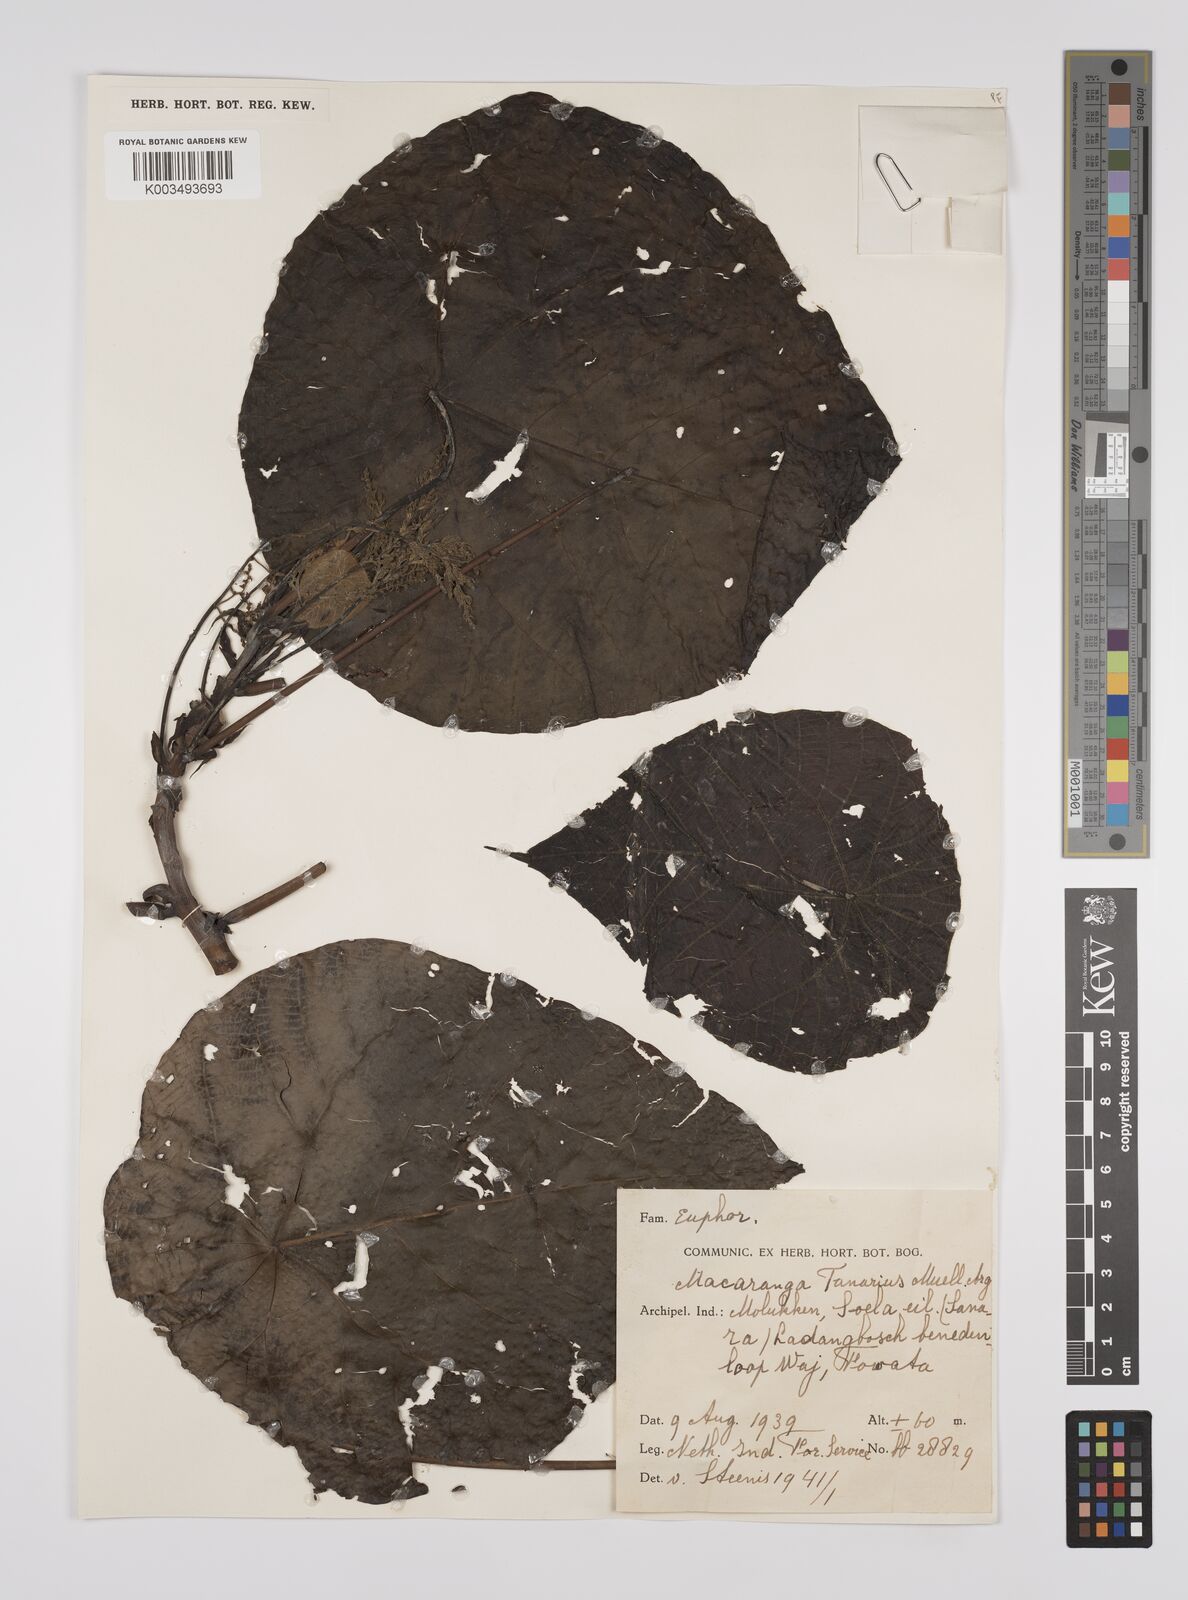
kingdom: Plantae
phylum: Tracheophyta
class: Magnoliopsida
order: Malpighiales
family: Euphorbiaceae
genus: Macaranga
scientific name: Macaranga tanarius
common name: Parasol leaf tree
